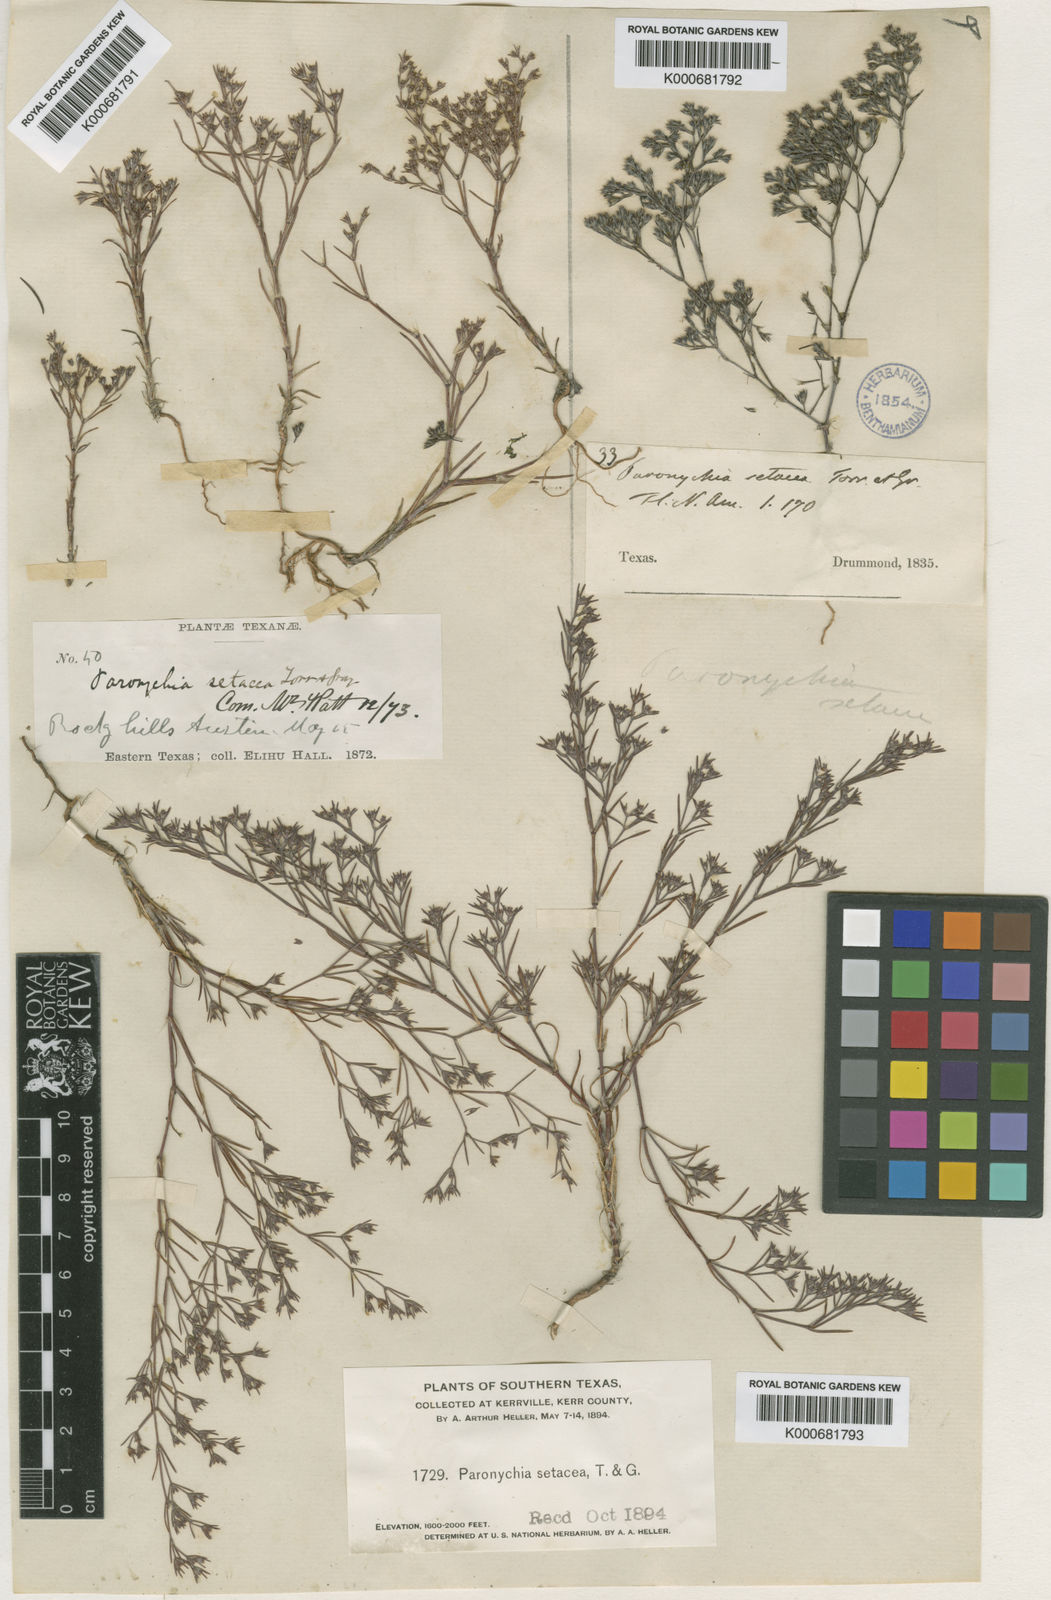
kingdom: Plantae
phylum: Tracheophyta
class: Magnoliopsida
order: Caryophyllales
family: Caryophyllaceae
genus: Paronychia
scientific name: Paronychia setacea
